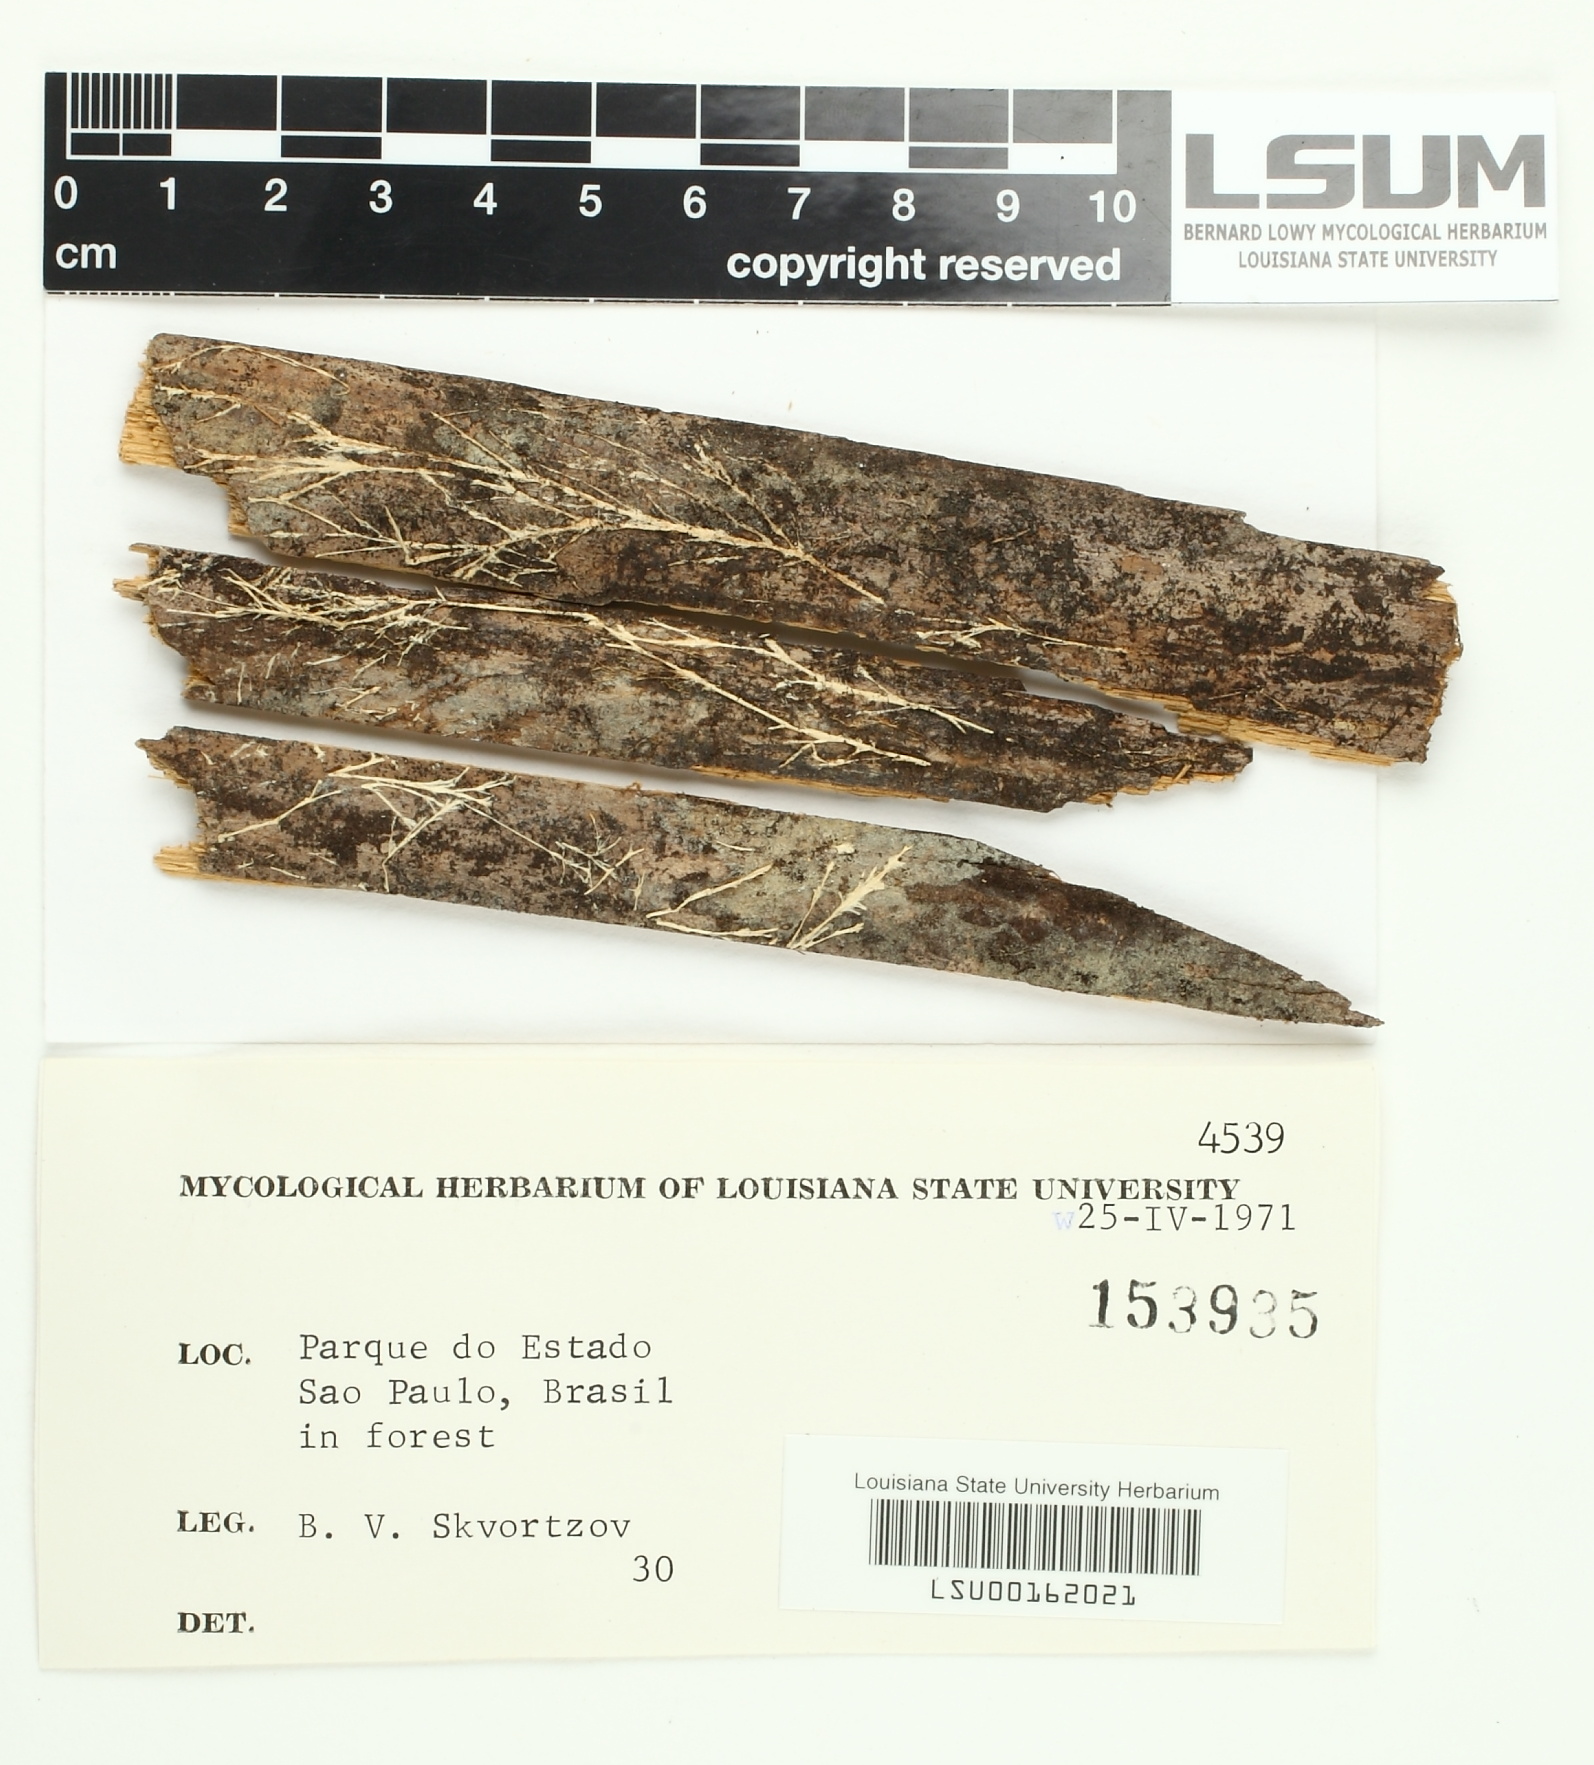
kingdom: Fungi
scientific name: Fungi
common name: Fungi
